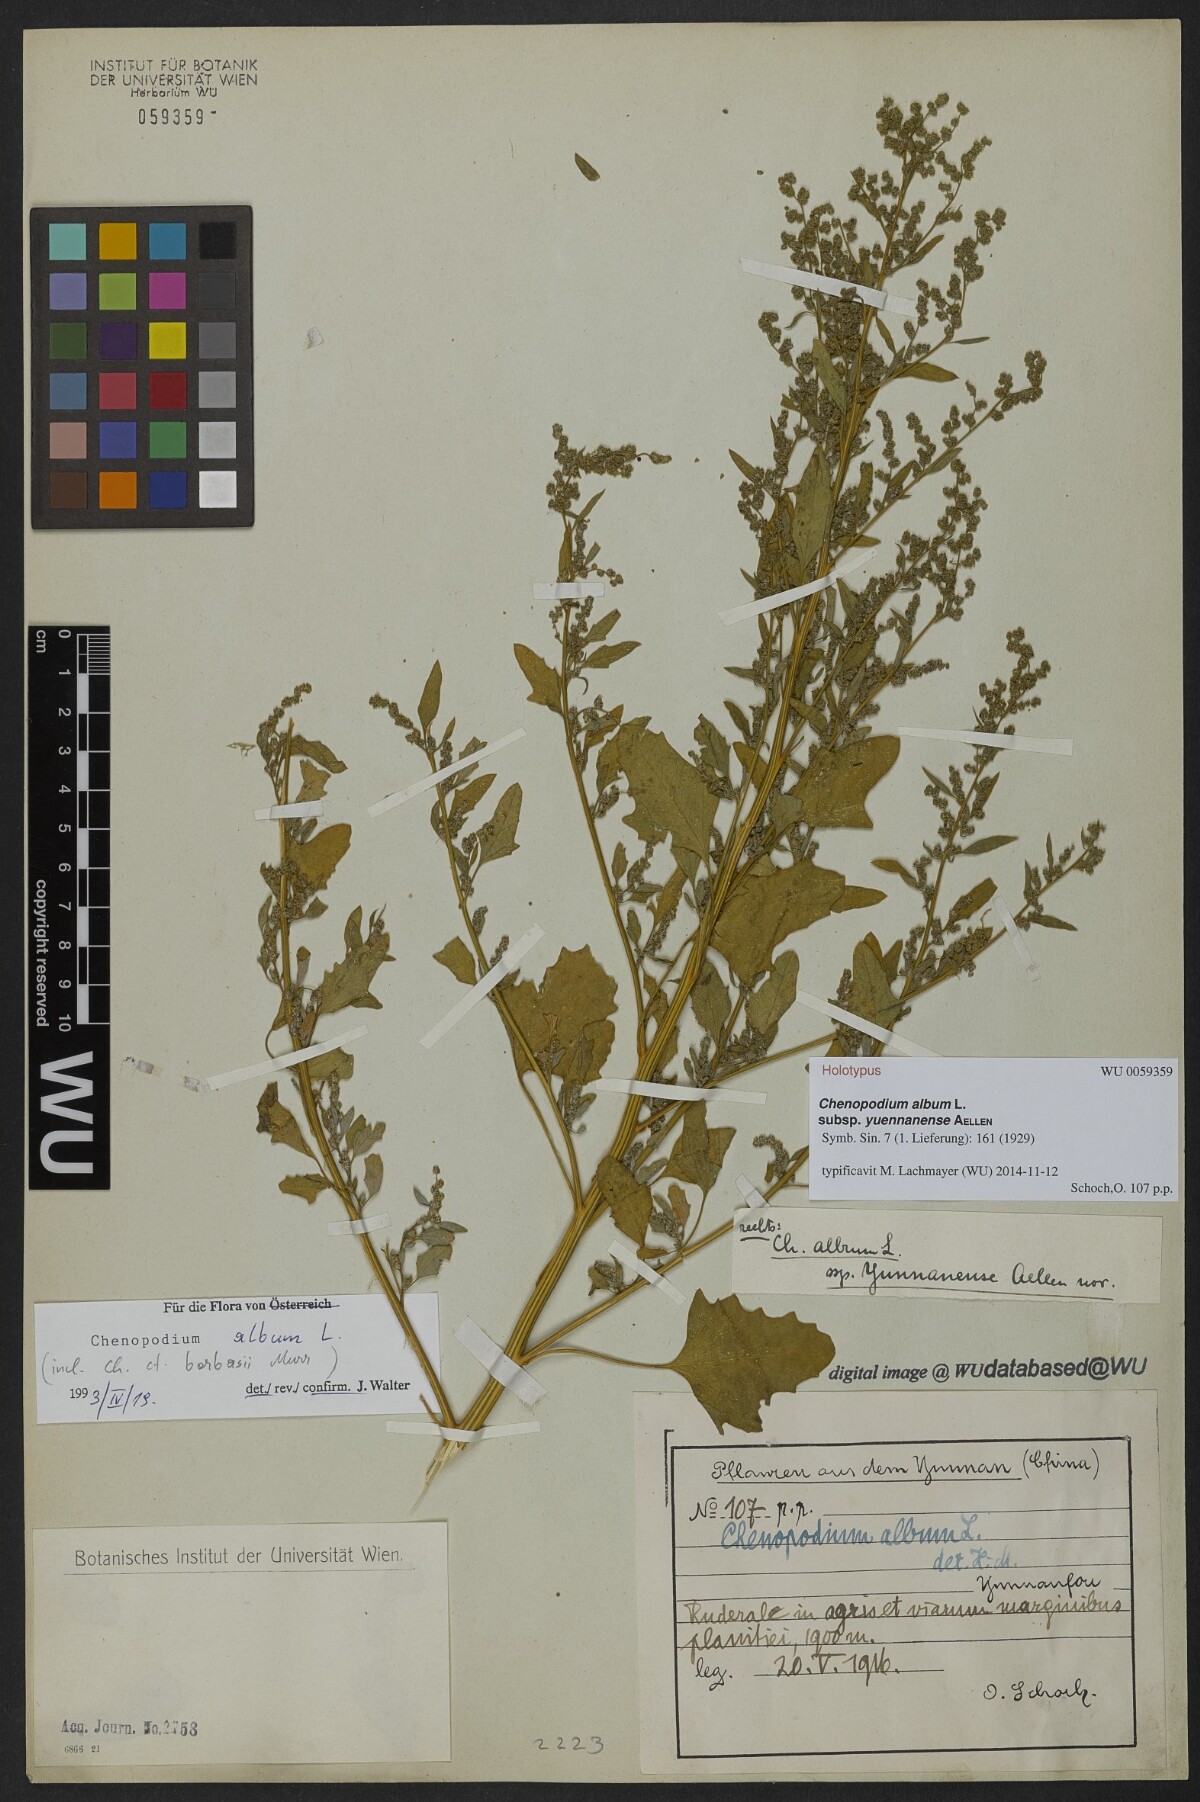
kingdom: Plantae
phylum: Tracheophyta
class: Magnoliopsida
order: Caryophyllales
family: Amaranthaceae
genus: Chenopodium
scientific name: Chenopodium album
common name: Fat-hen
